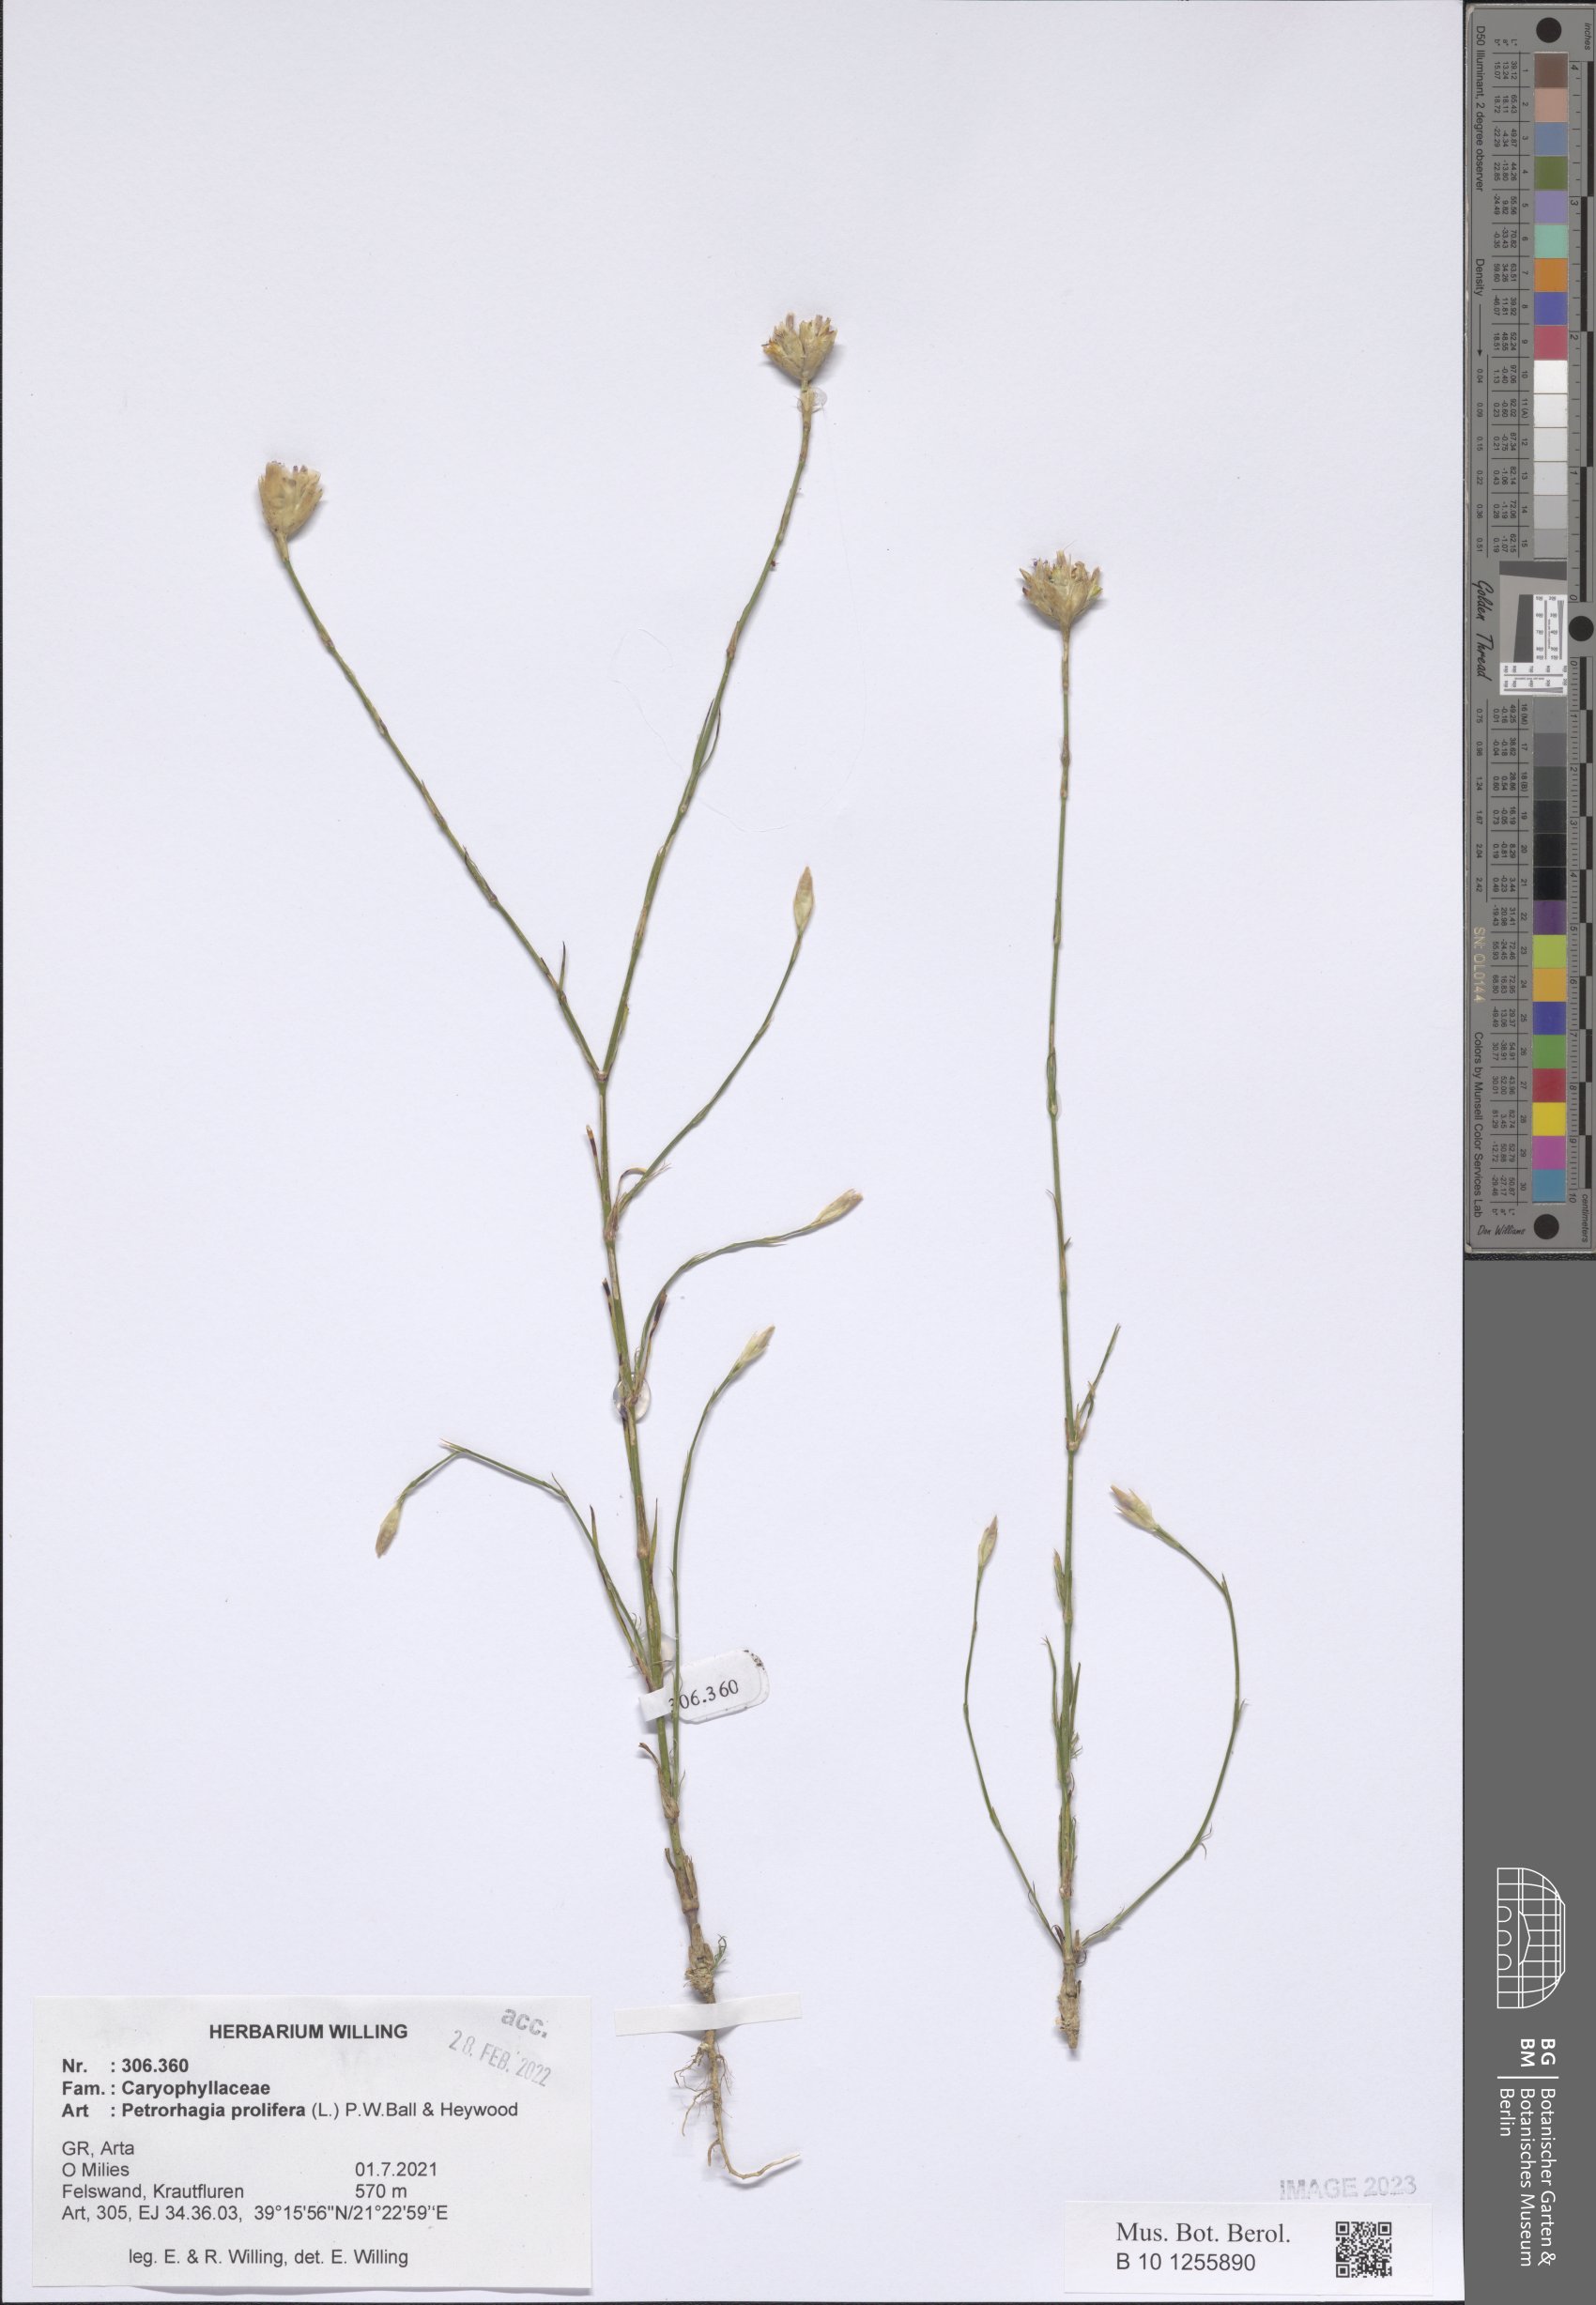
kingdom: Plantae
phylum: Tracheophyta
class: Magnoliopsida
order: Caryophyllales
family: Caryophyllaceae
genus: Petrorhagia
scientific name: Petrorhagia prolifera
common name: Proliferous pink
